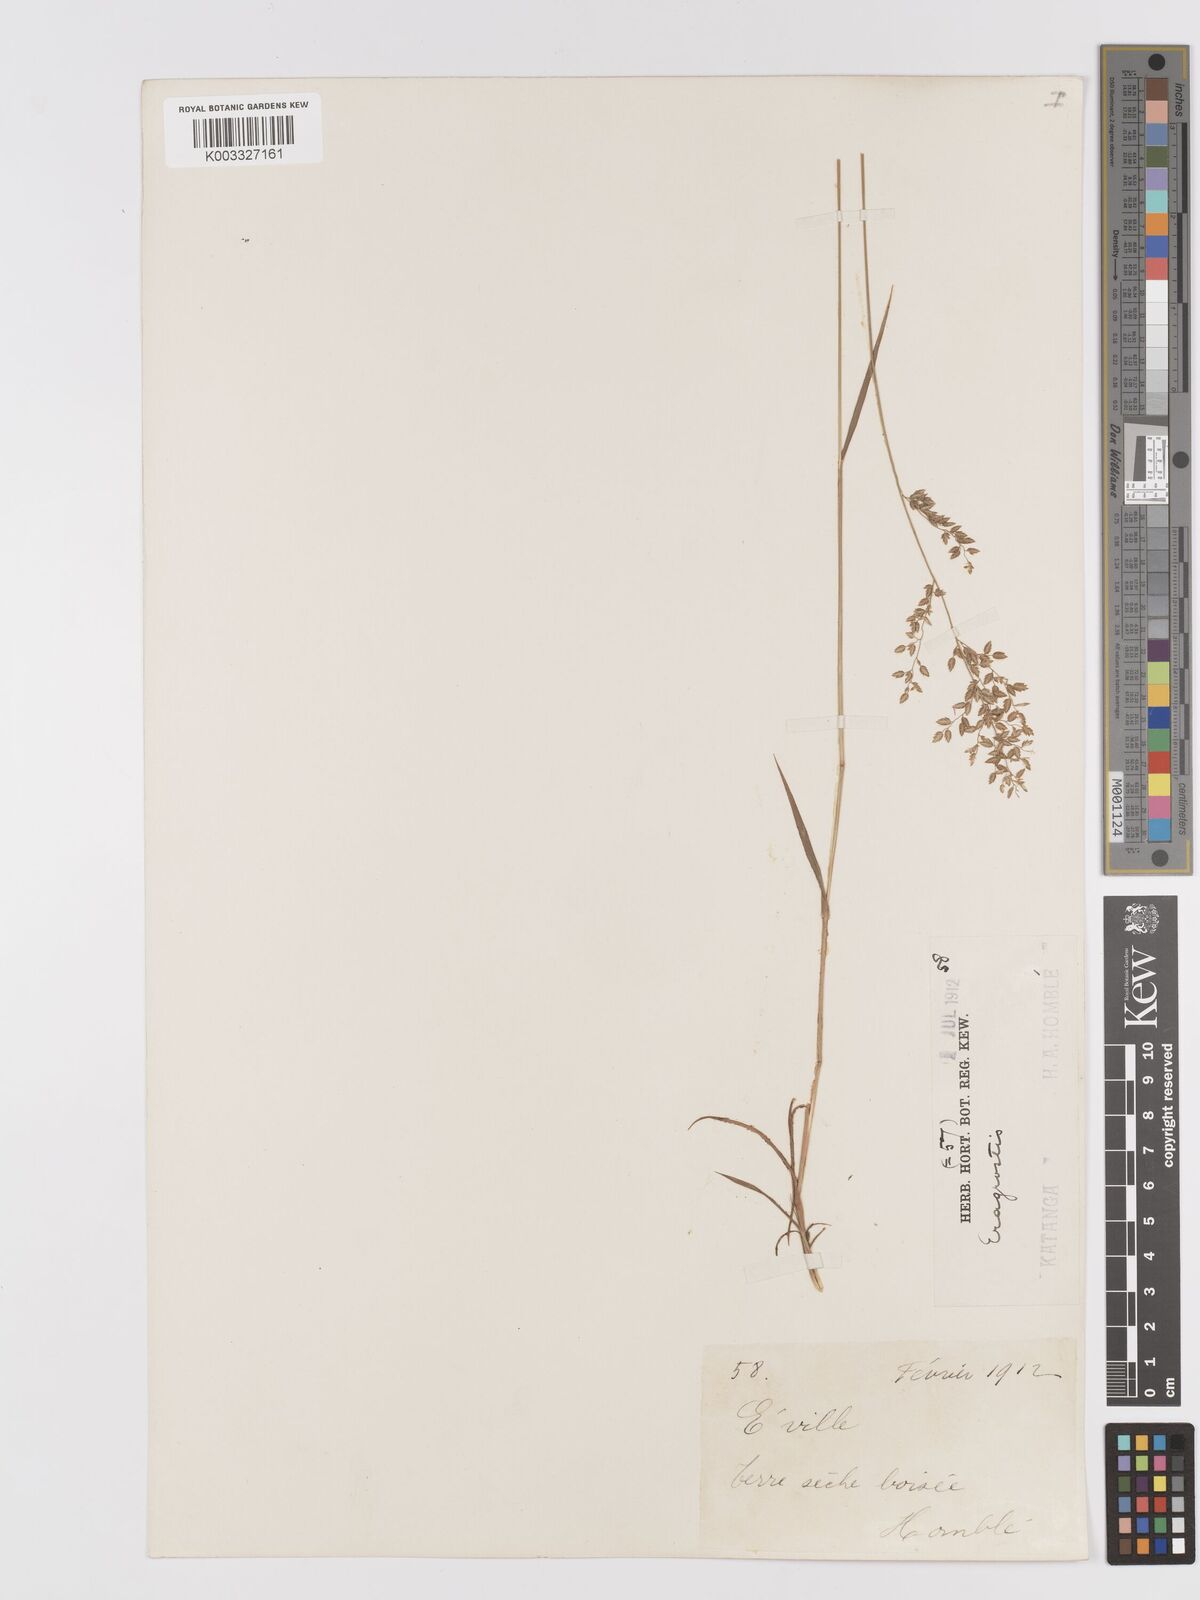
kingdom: Plantae
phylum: Tracheophyta
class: Liliopsida
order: Poales
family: Poaceae
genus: Eragrostis
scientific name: Eragrostis racemosa
